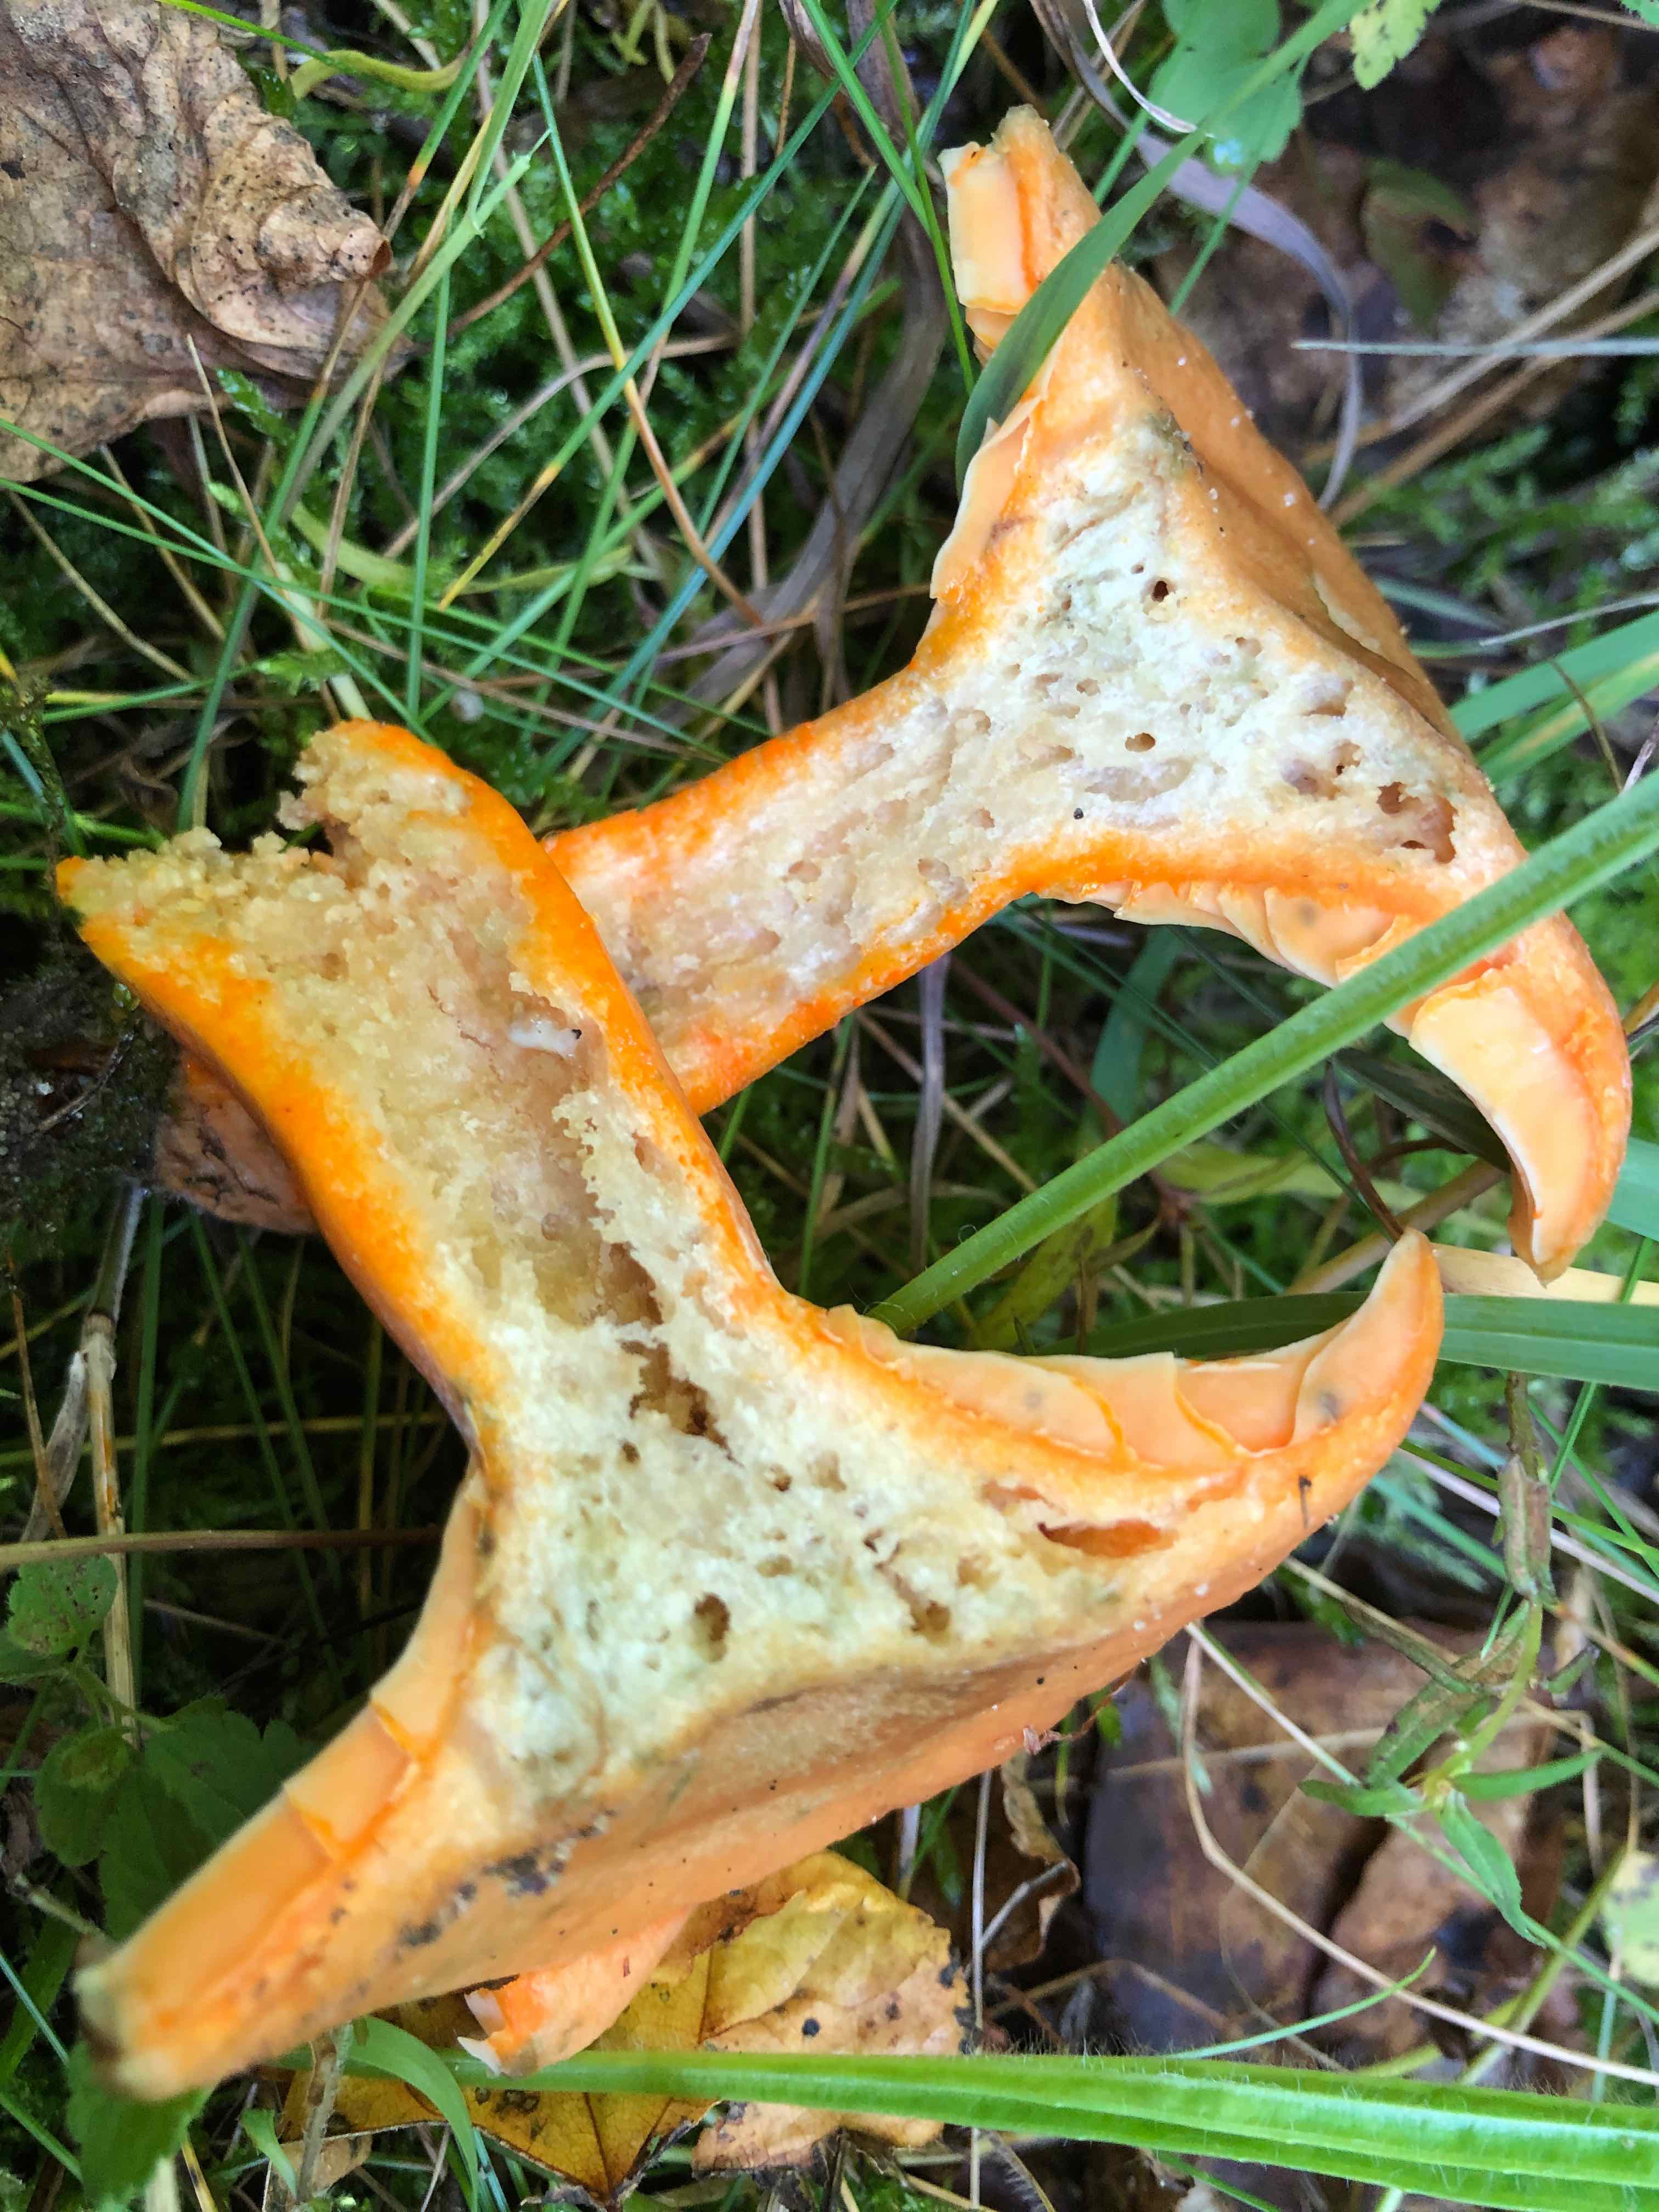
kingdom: Fungi
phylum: Basidiomycota
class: Agaricomycetes
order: Russulales
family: Russulaceae
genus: Lactarius
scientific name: Lactarius deterrimus
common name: gran-mælkehat
